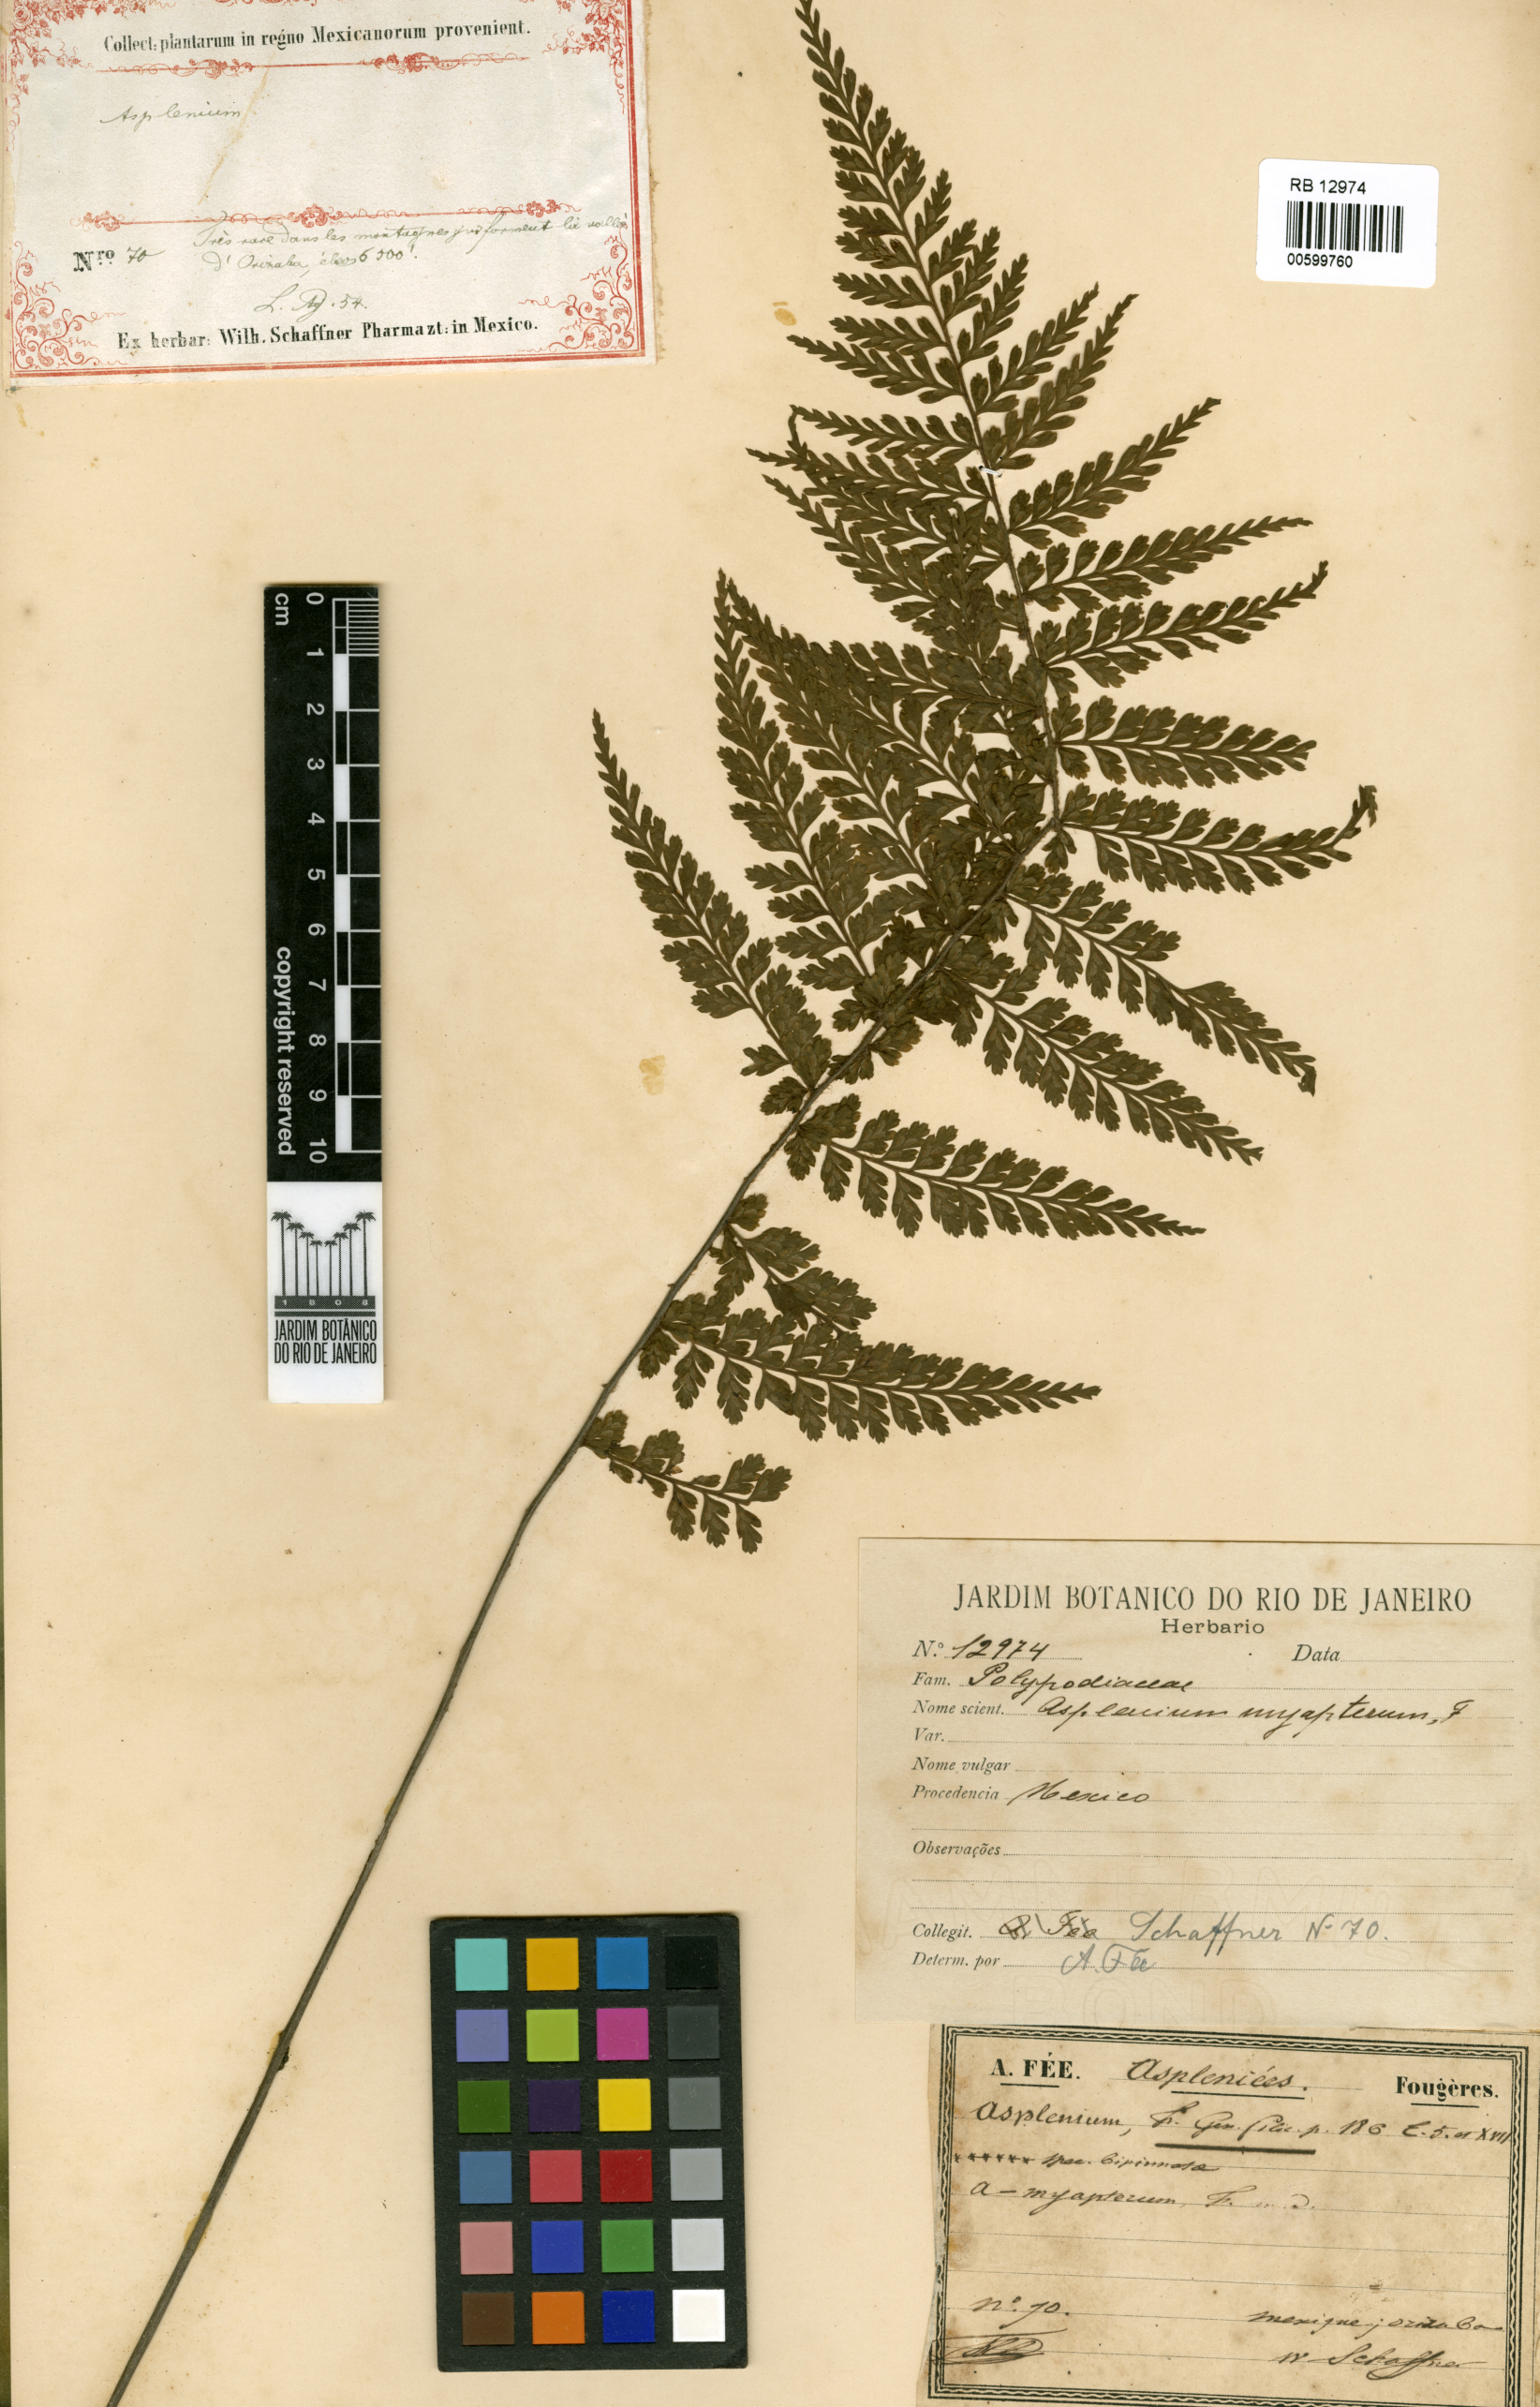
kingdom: Plantae
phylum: Tracheophyta
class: Polypodiopsida
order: Polypodiales
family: Aspleniaceae
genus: Asplenium
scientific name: Asplenium blepharophorum
